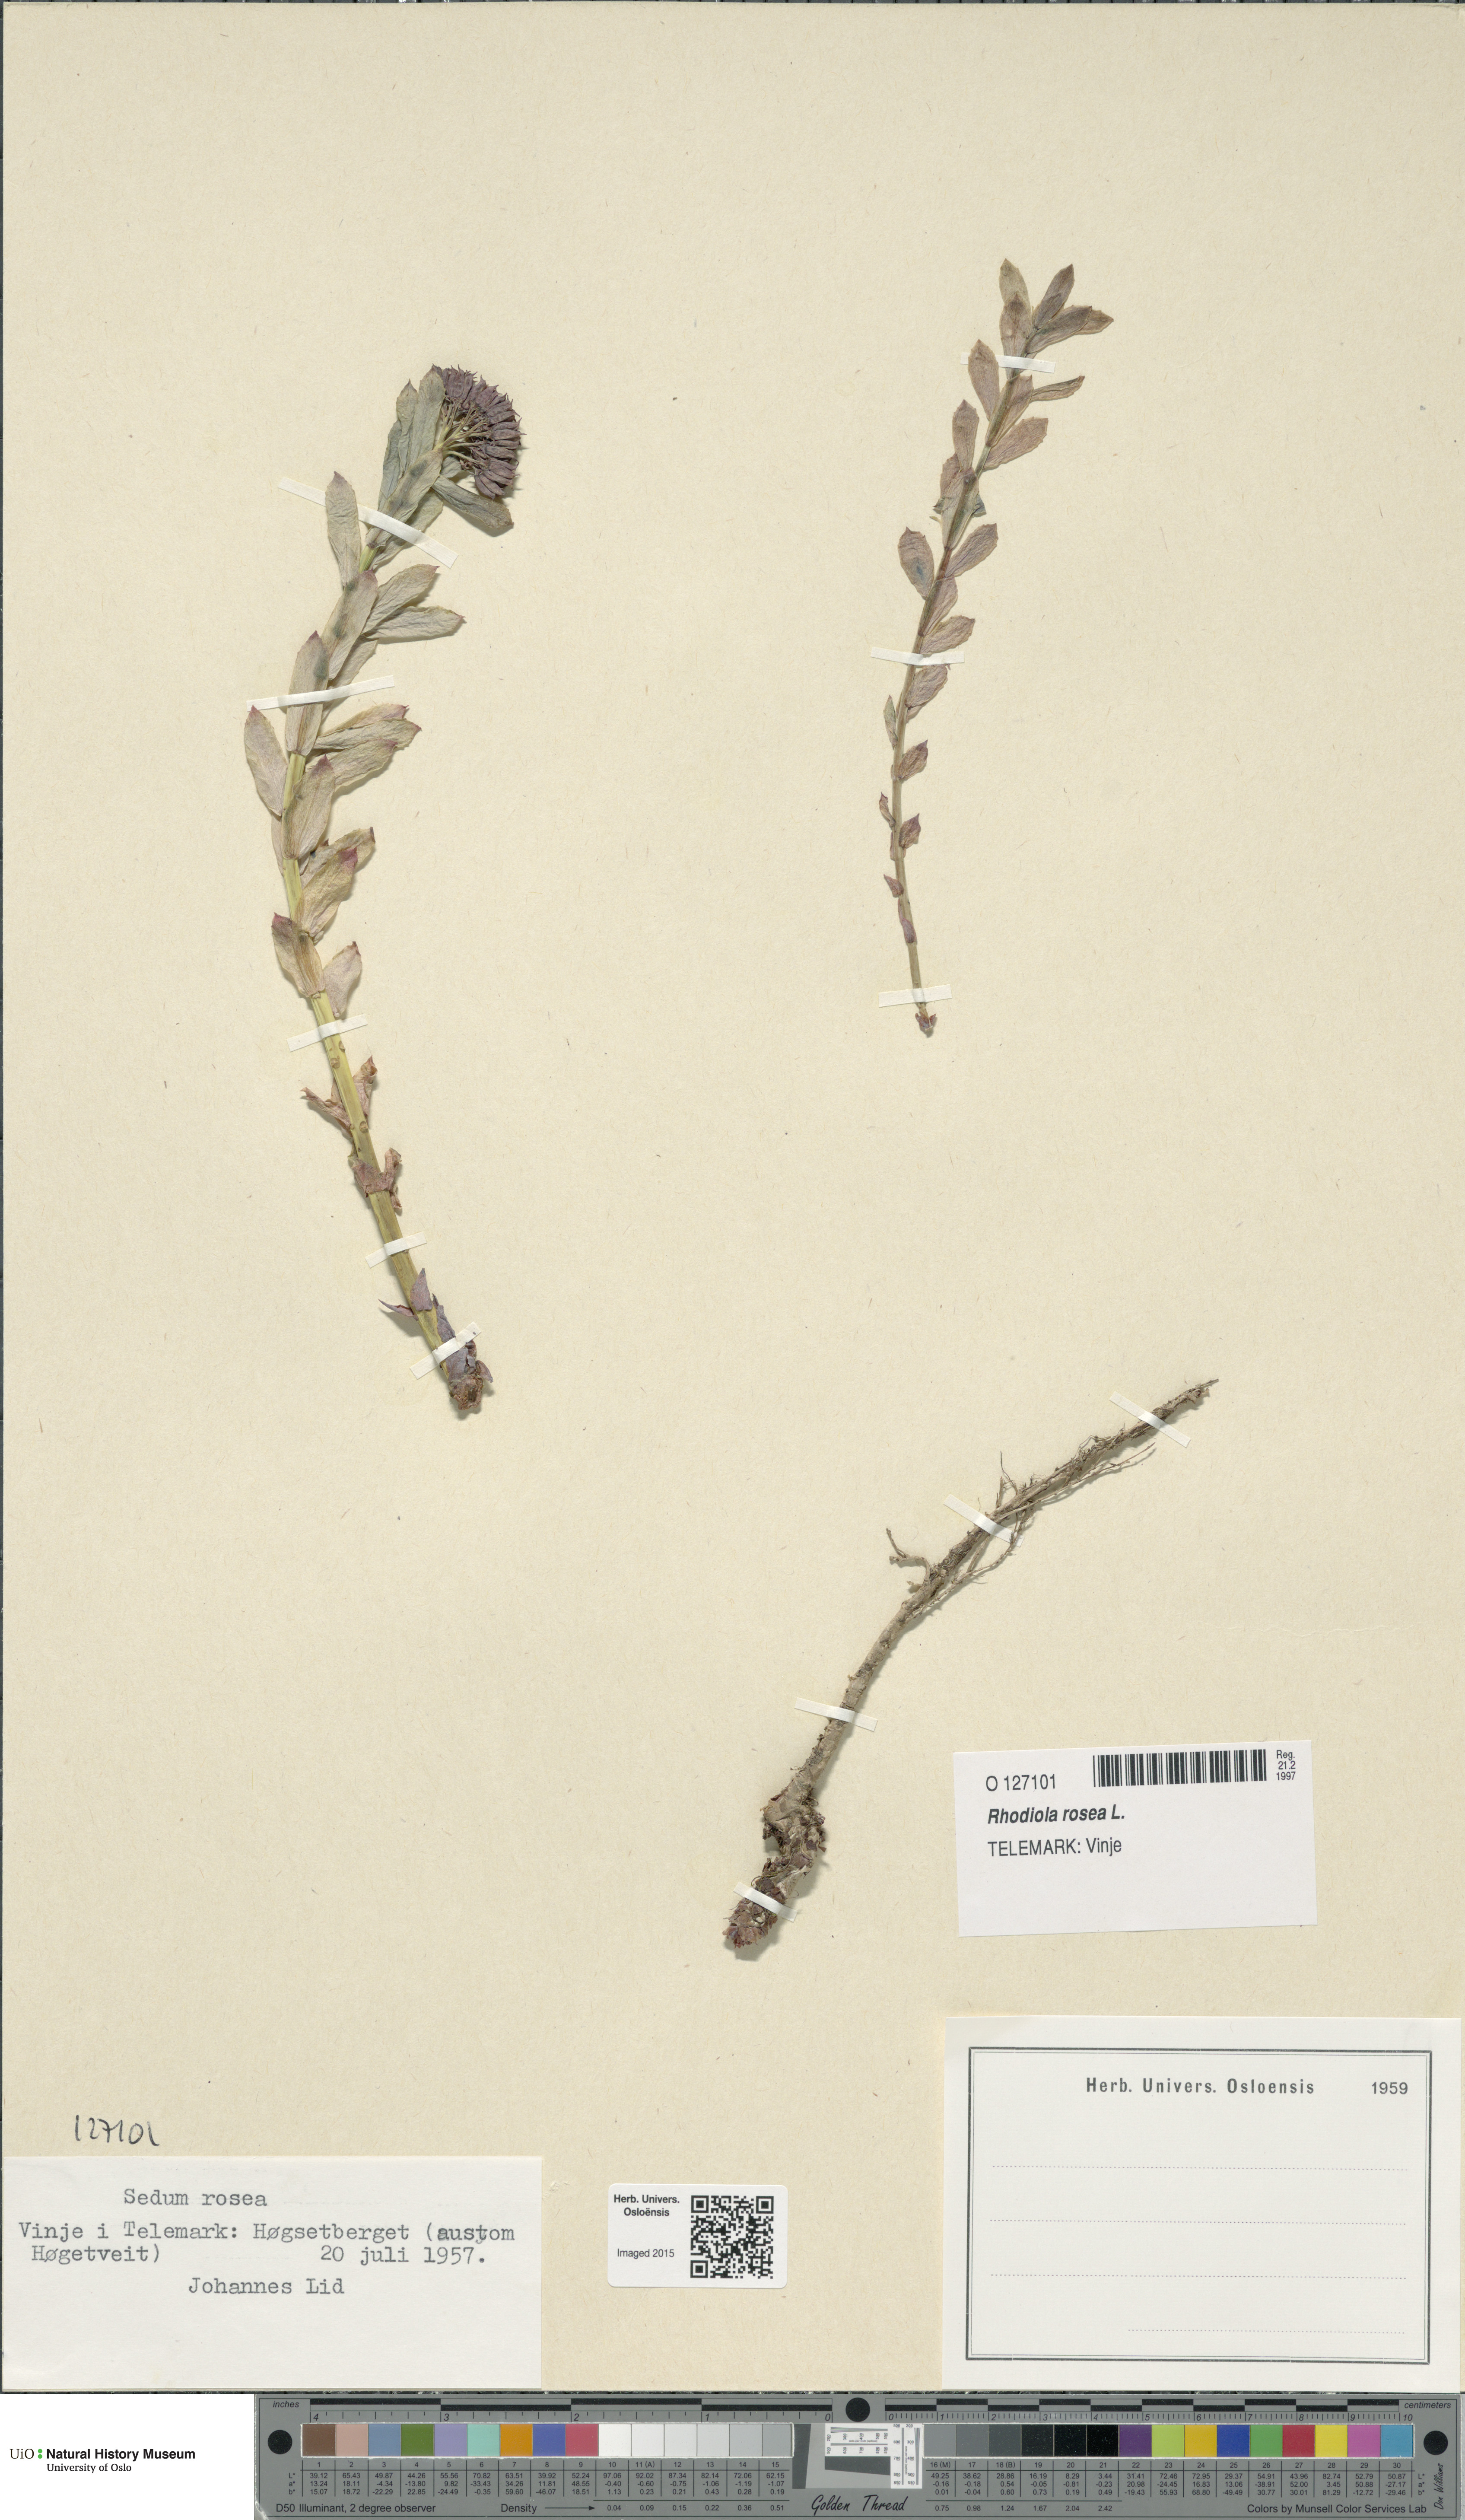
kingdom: Plantae
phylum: Tracheophyta
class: Magnoliopsida
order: Saxifragales
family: Crassulaceae
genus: Rhodiola
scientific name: Rhodiola rosea
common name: Roseroot
